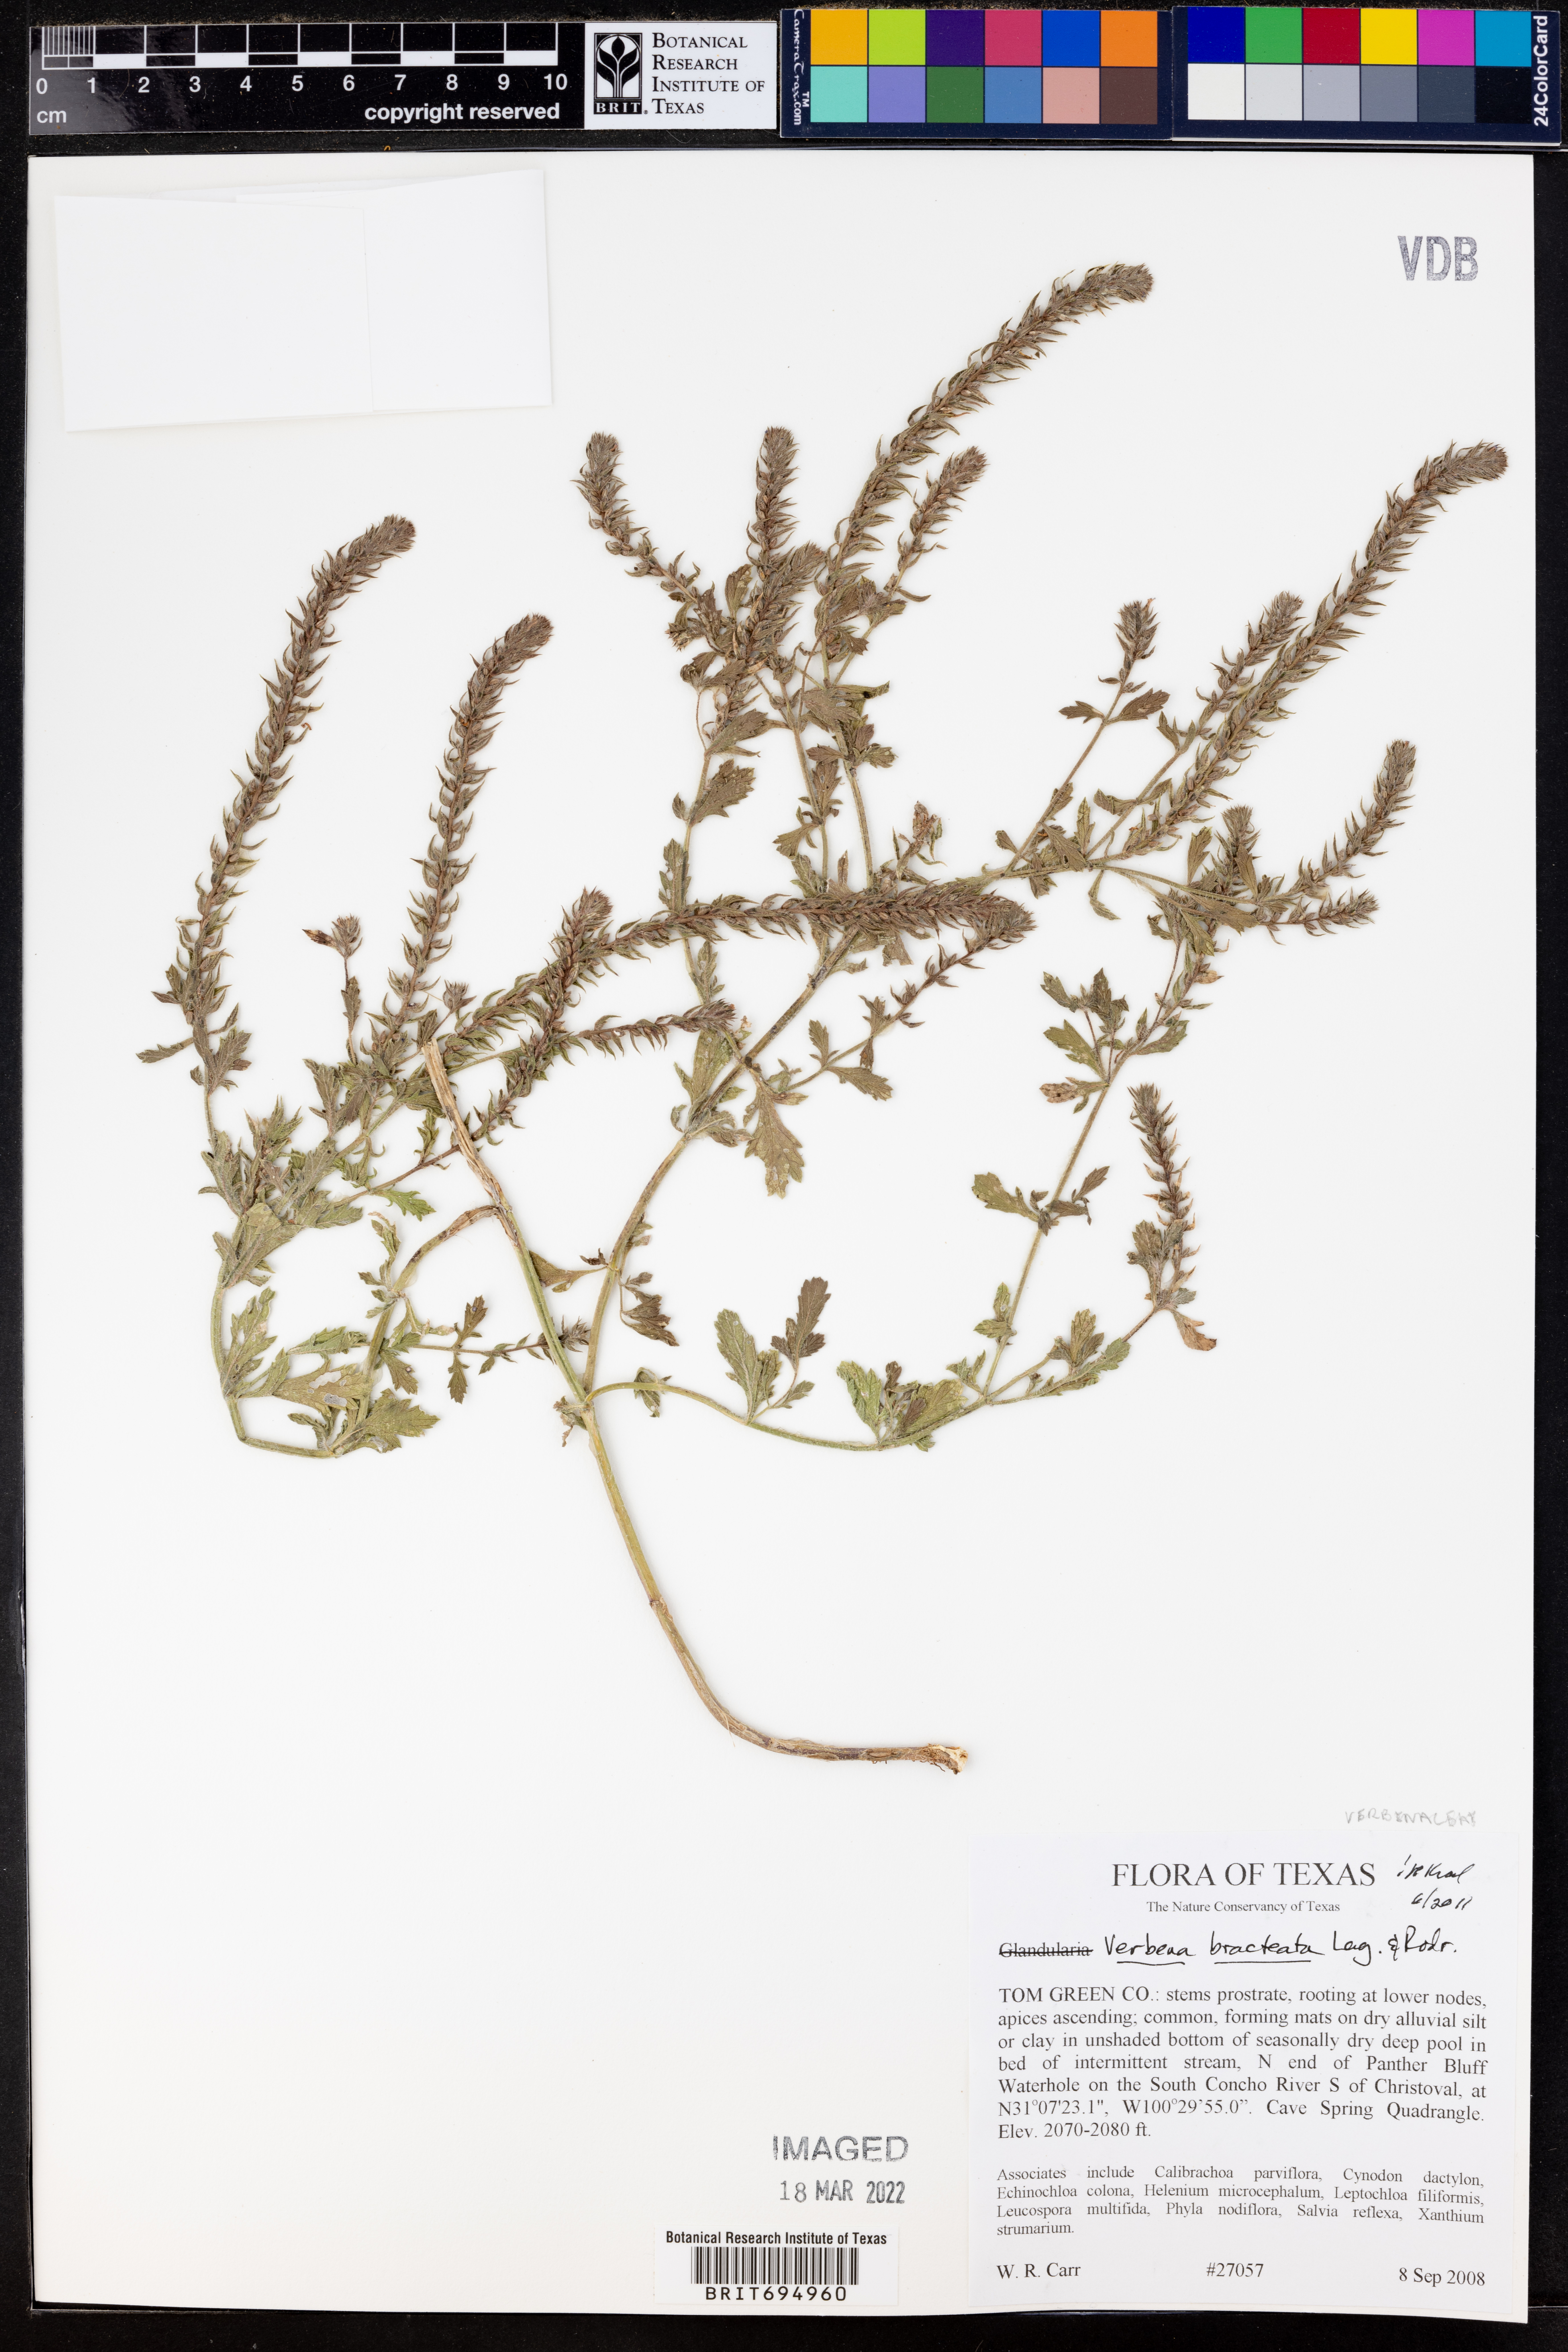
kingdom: Plantae
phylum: Tracheophyta
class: Magnoliopsida
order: Lamiales
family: Verbenaceae
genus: Verbena
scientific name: Verbena bracteata
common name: Bracted vervain
